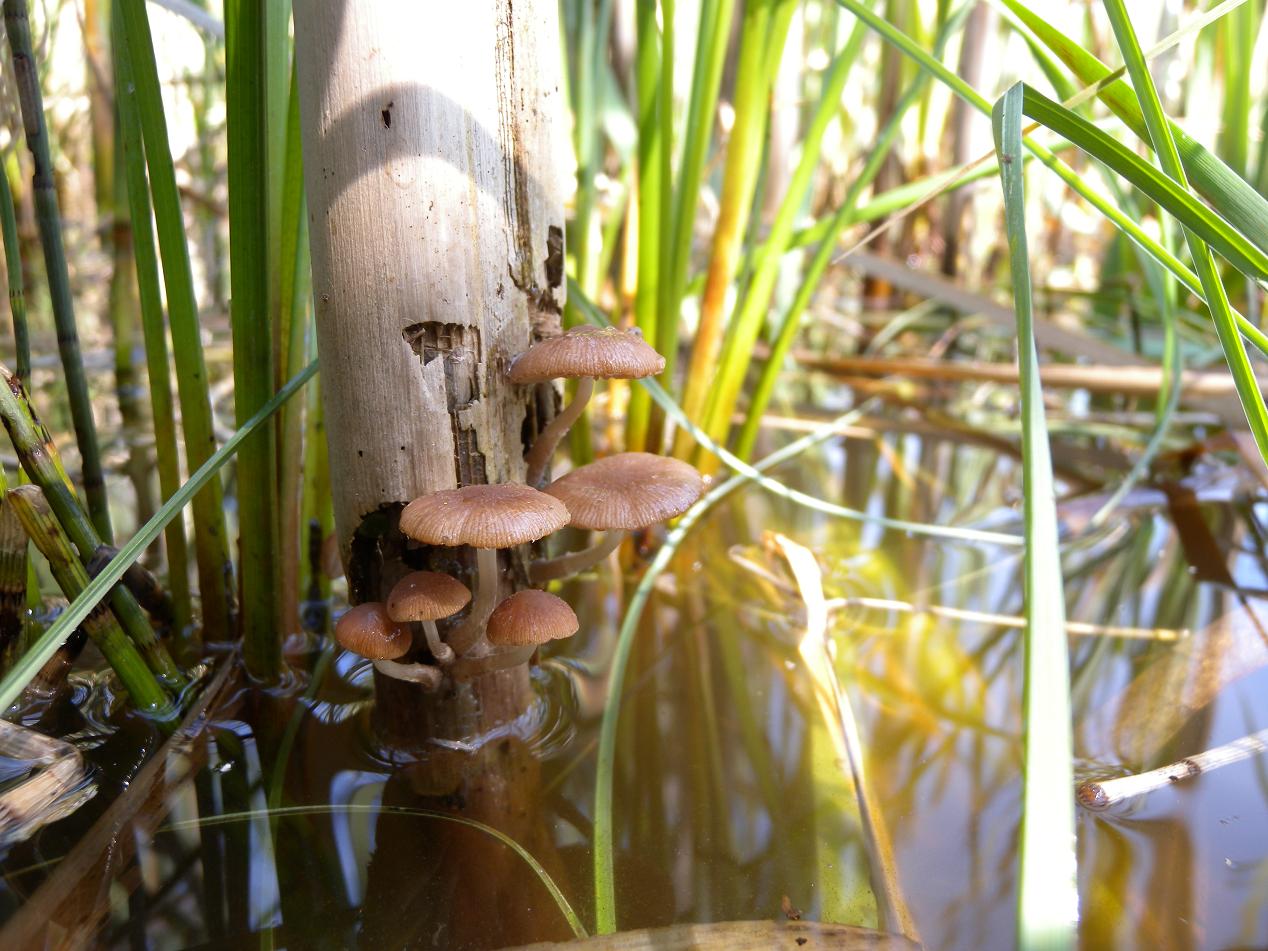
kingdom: Fungi
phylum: Basidiomycota
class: Agaricomycetes
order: Agaricales
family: Psathyrellaceae
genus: Candolleomyces
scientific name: Candolleomyces typhae
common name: dunhammer-mørkhat
